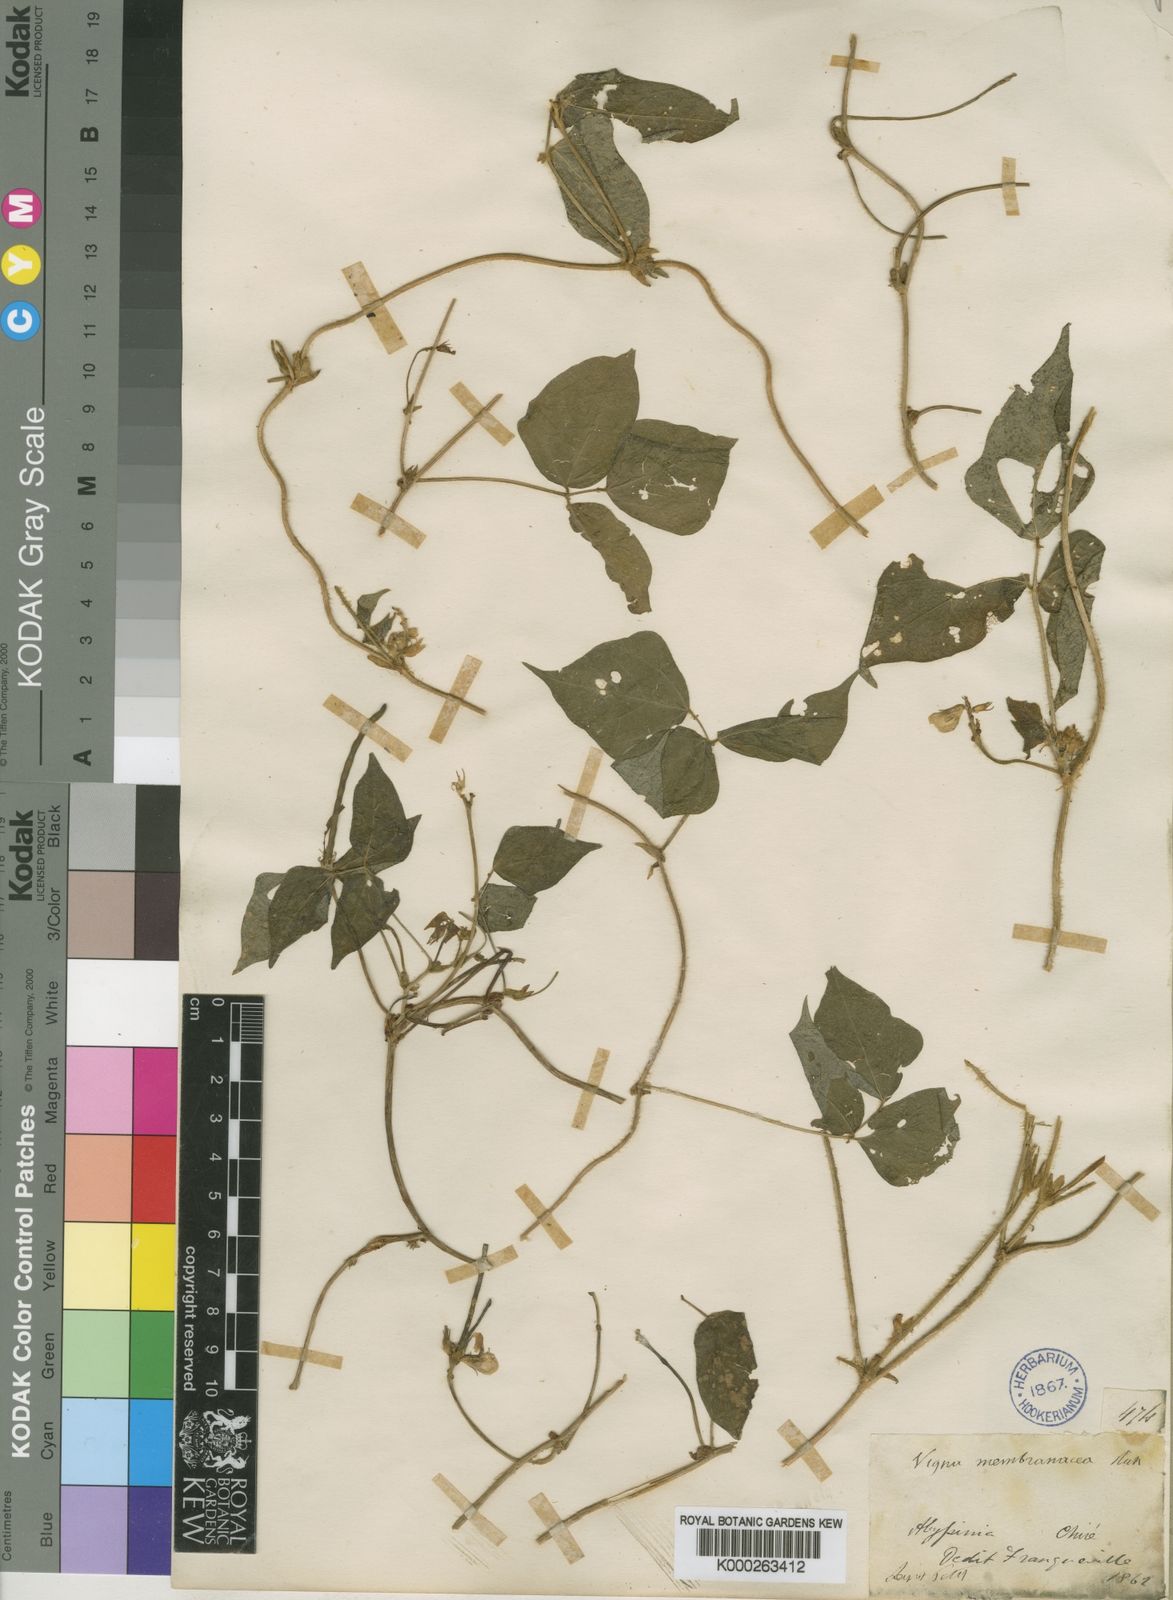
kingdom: Plantae
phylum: Tracheophyta
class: Magnoliopsida
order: Fabales
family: Fabaceae
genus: Vigna
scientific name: Vigna membranacea
